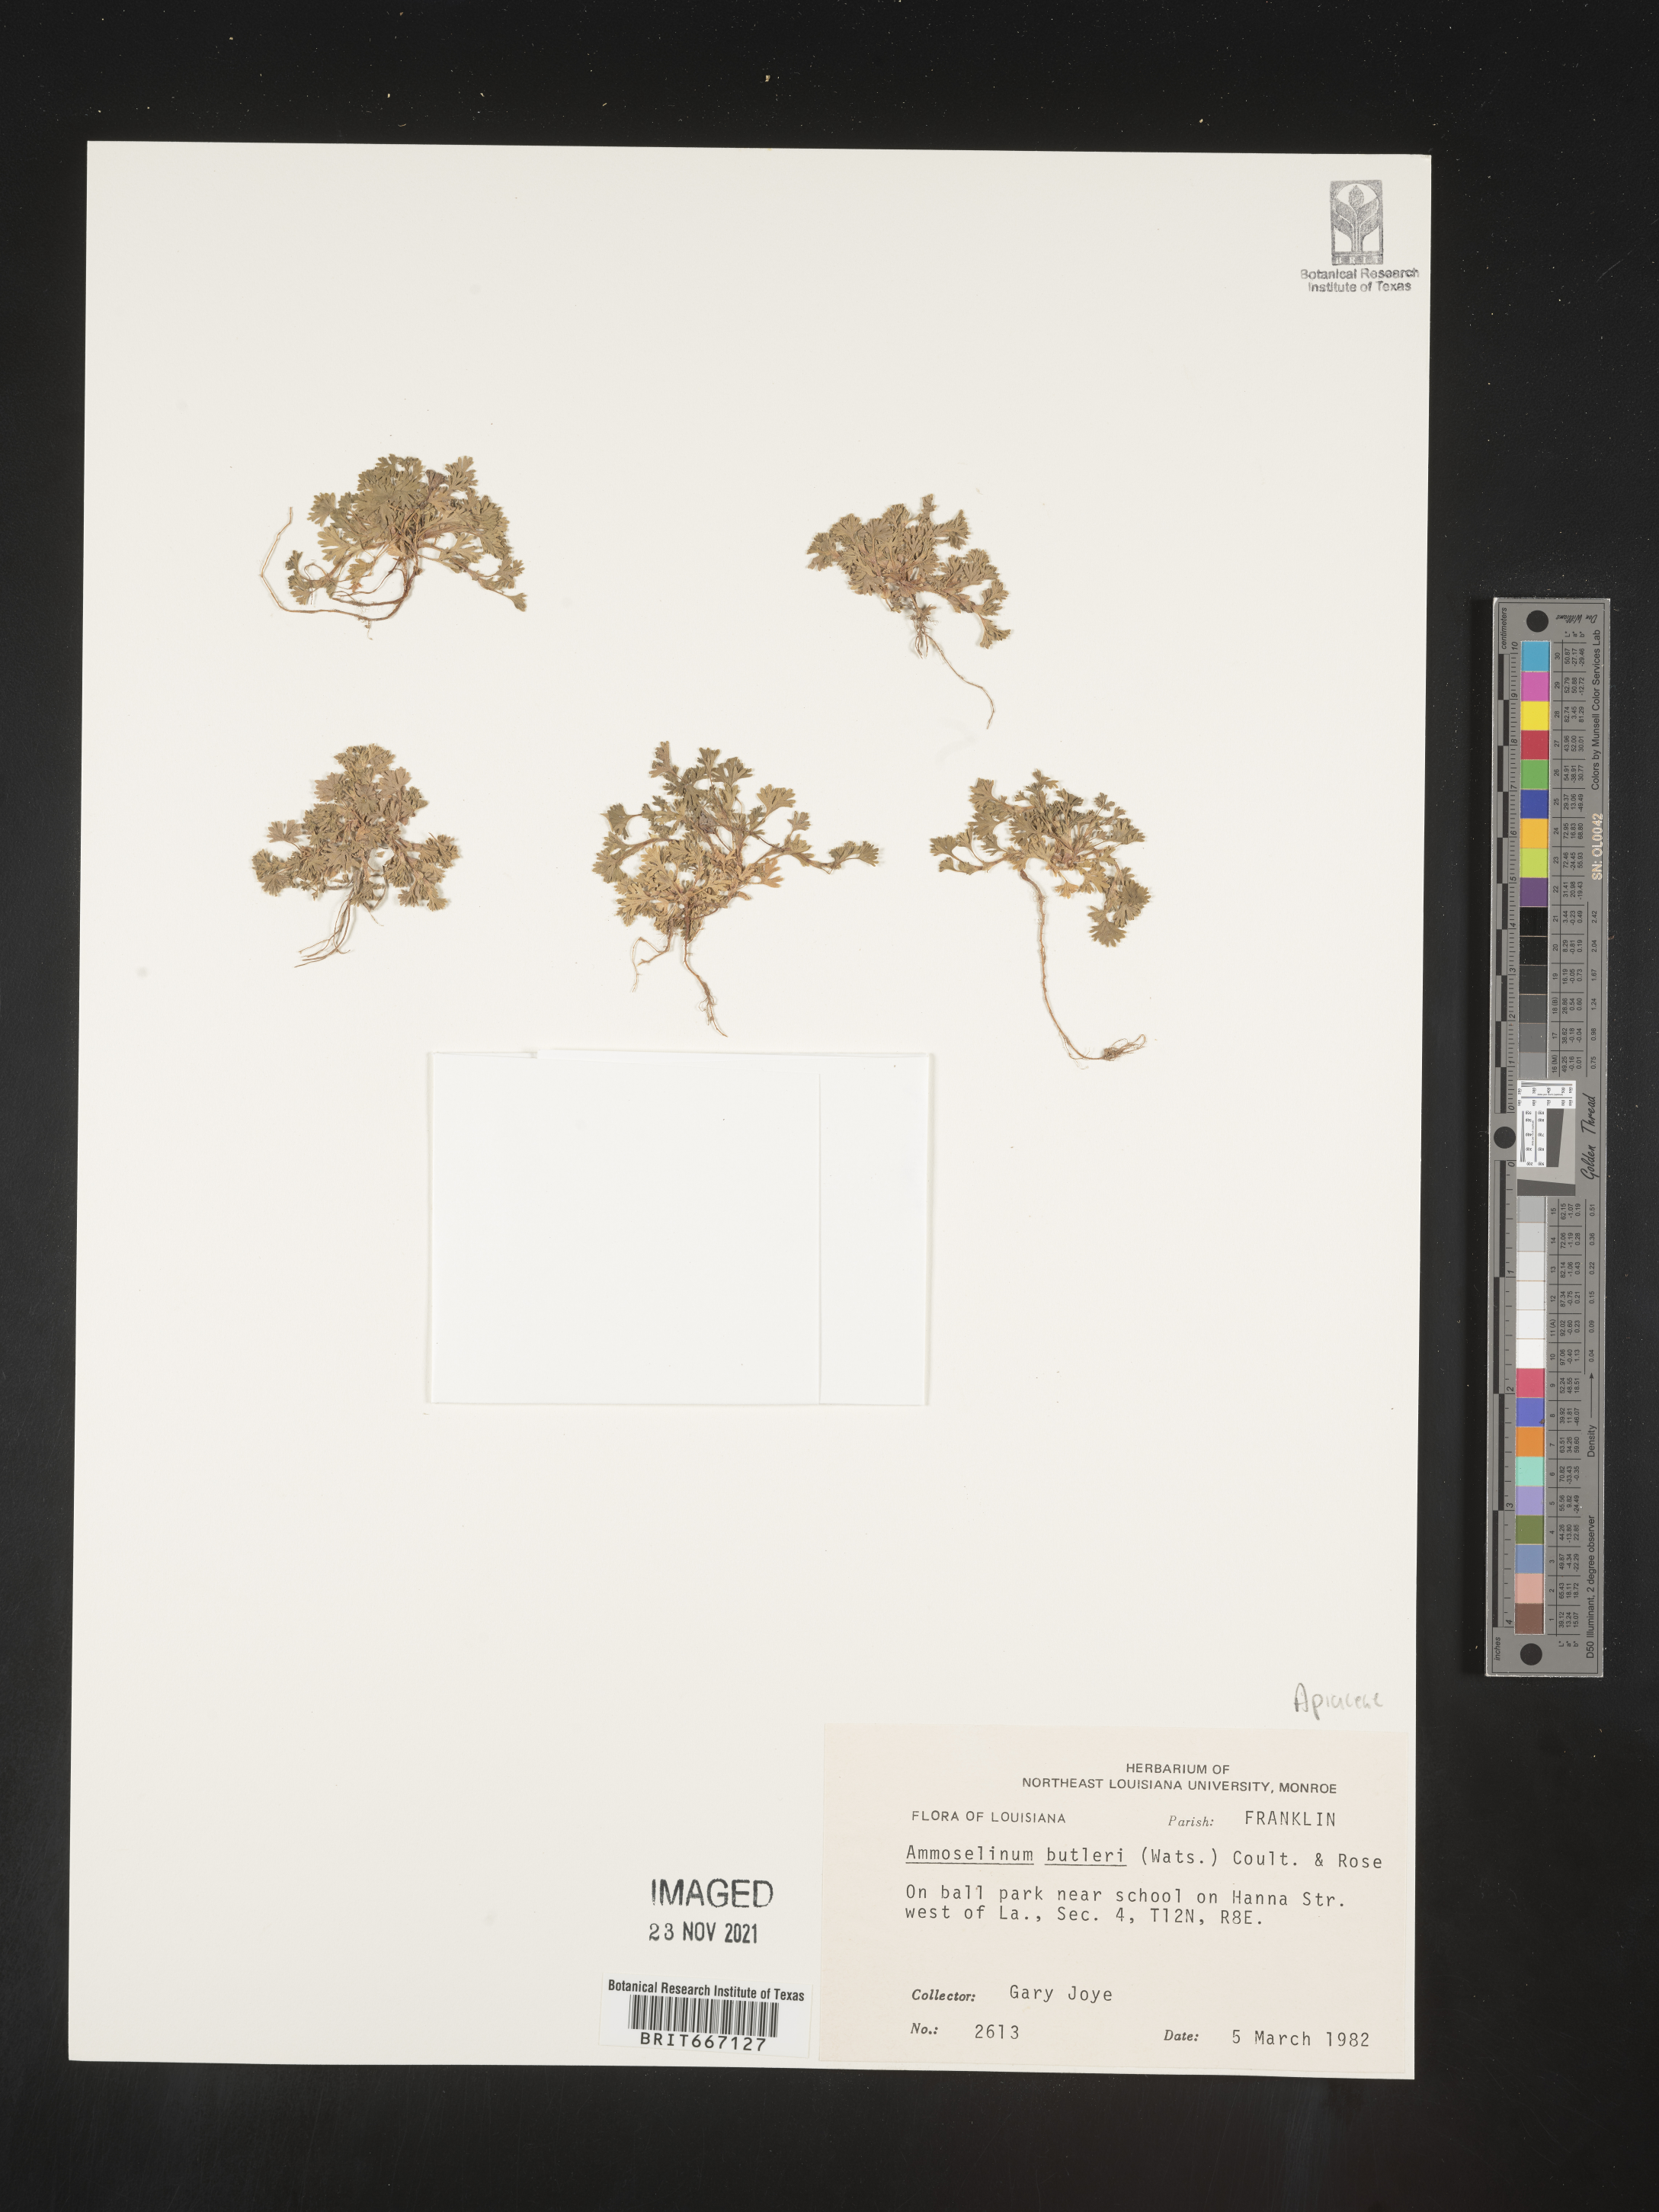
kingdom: Plantae
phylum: Tracheophyta
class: Magnoliopsida
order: Apiales
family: Apiaceae
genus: Ammoselinum
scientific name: Ammoselinum butleri
